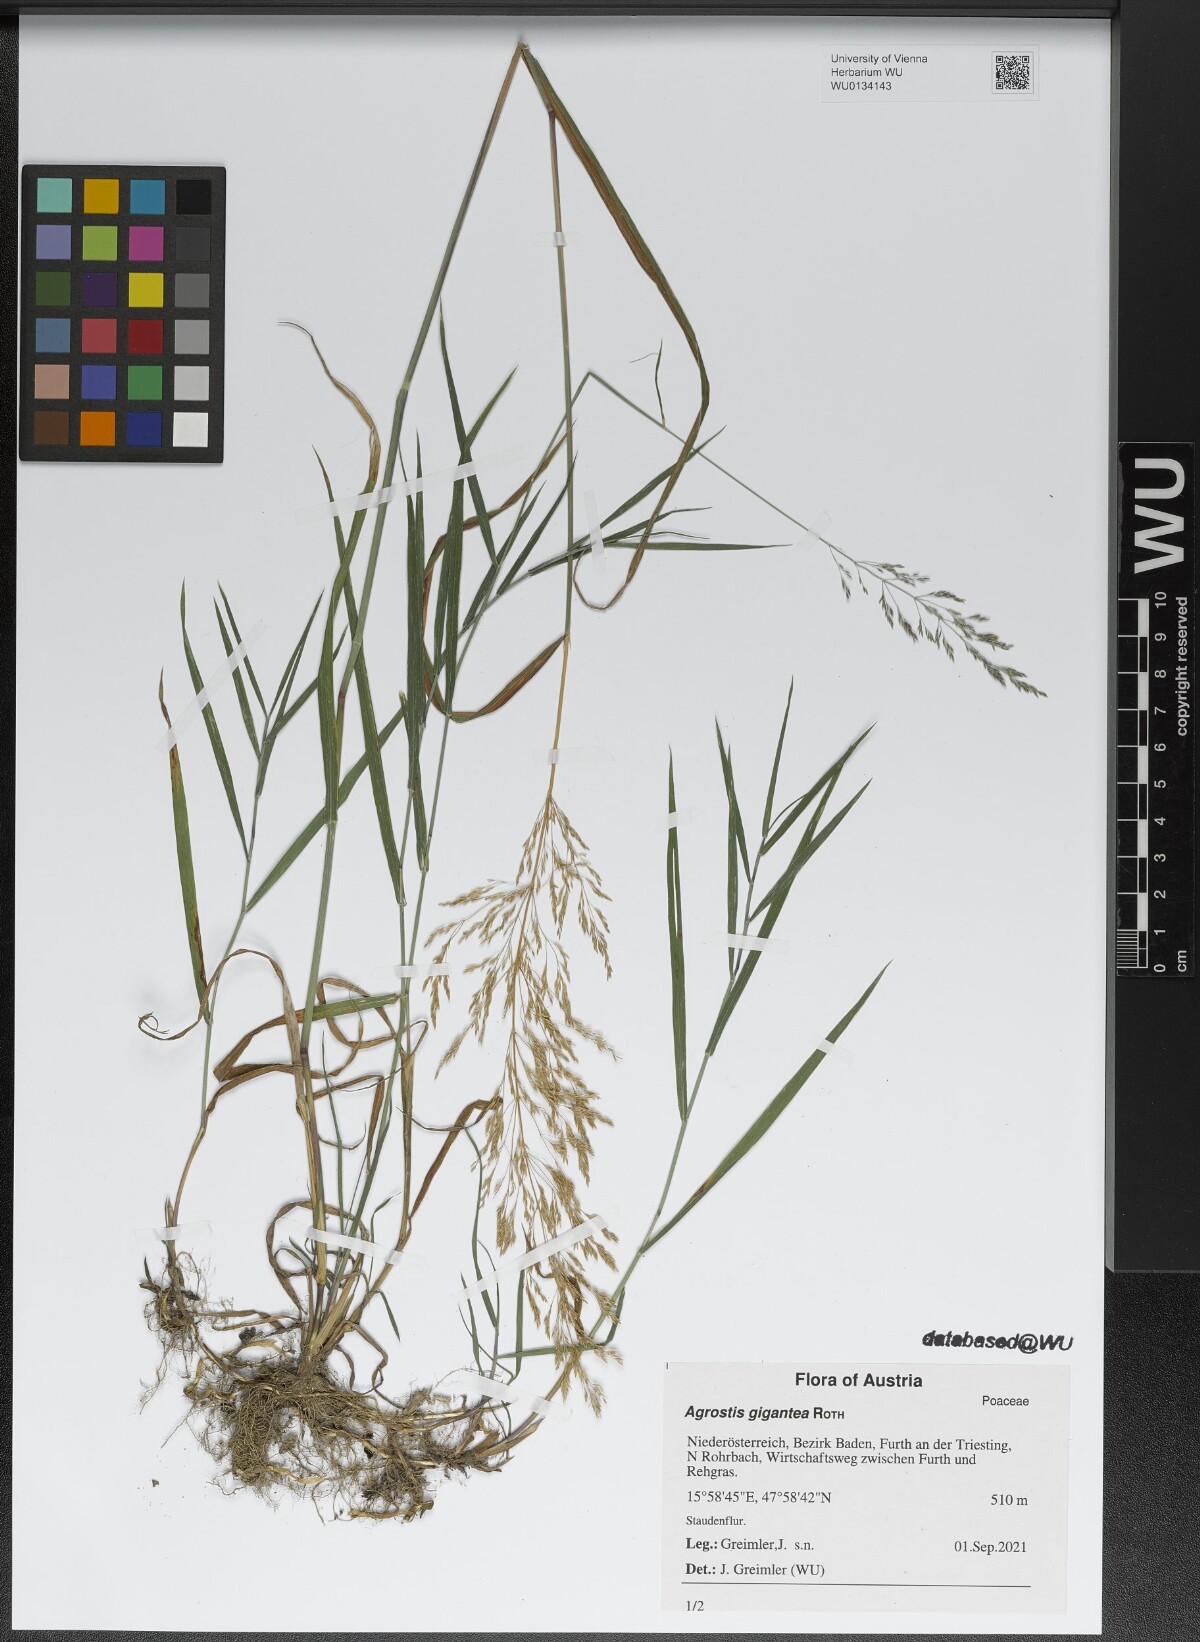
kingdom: Plantae
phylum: Tracheophyta
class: Liliopsida
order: Poales
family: Poaceae
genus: Agrostis
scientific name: Agrostis gigantea
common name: Black bent
